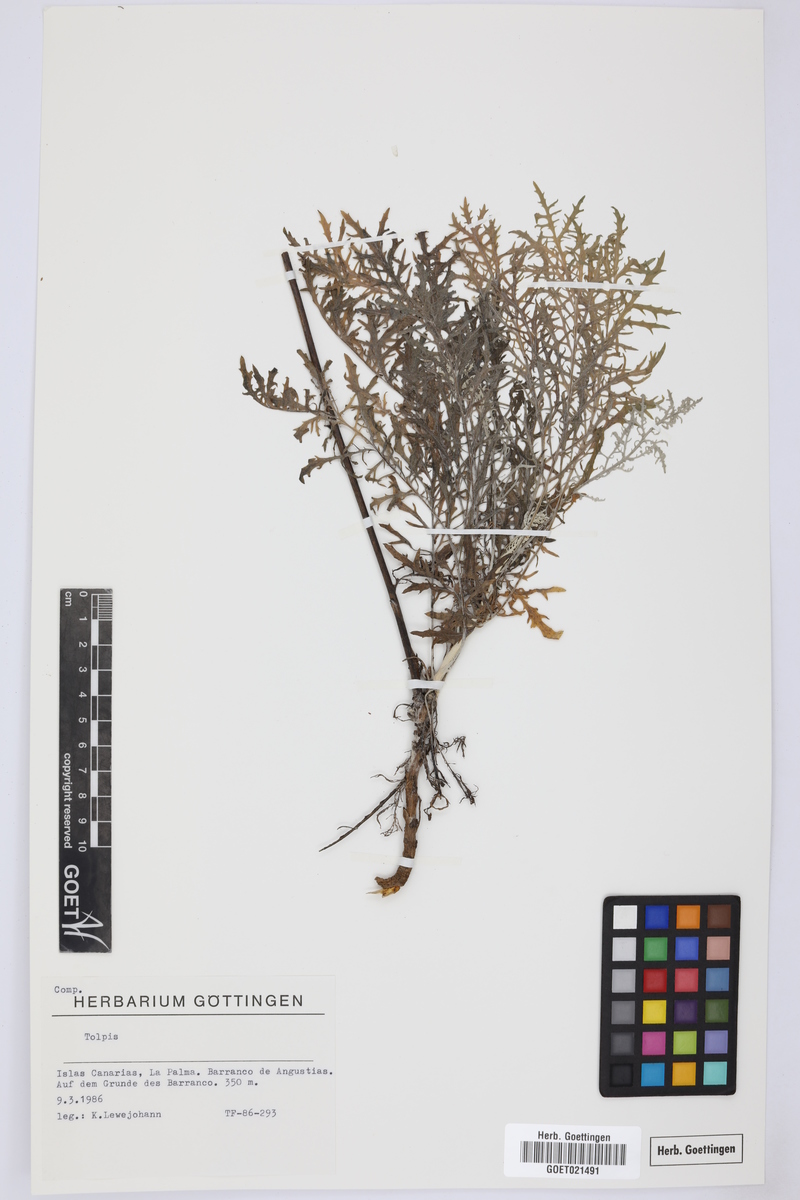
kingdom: Plantae
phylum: Tracheophyta
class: Magnoliopsida
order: Asterales
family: Asteraceae
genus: Tolpis
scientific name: Tolpis
